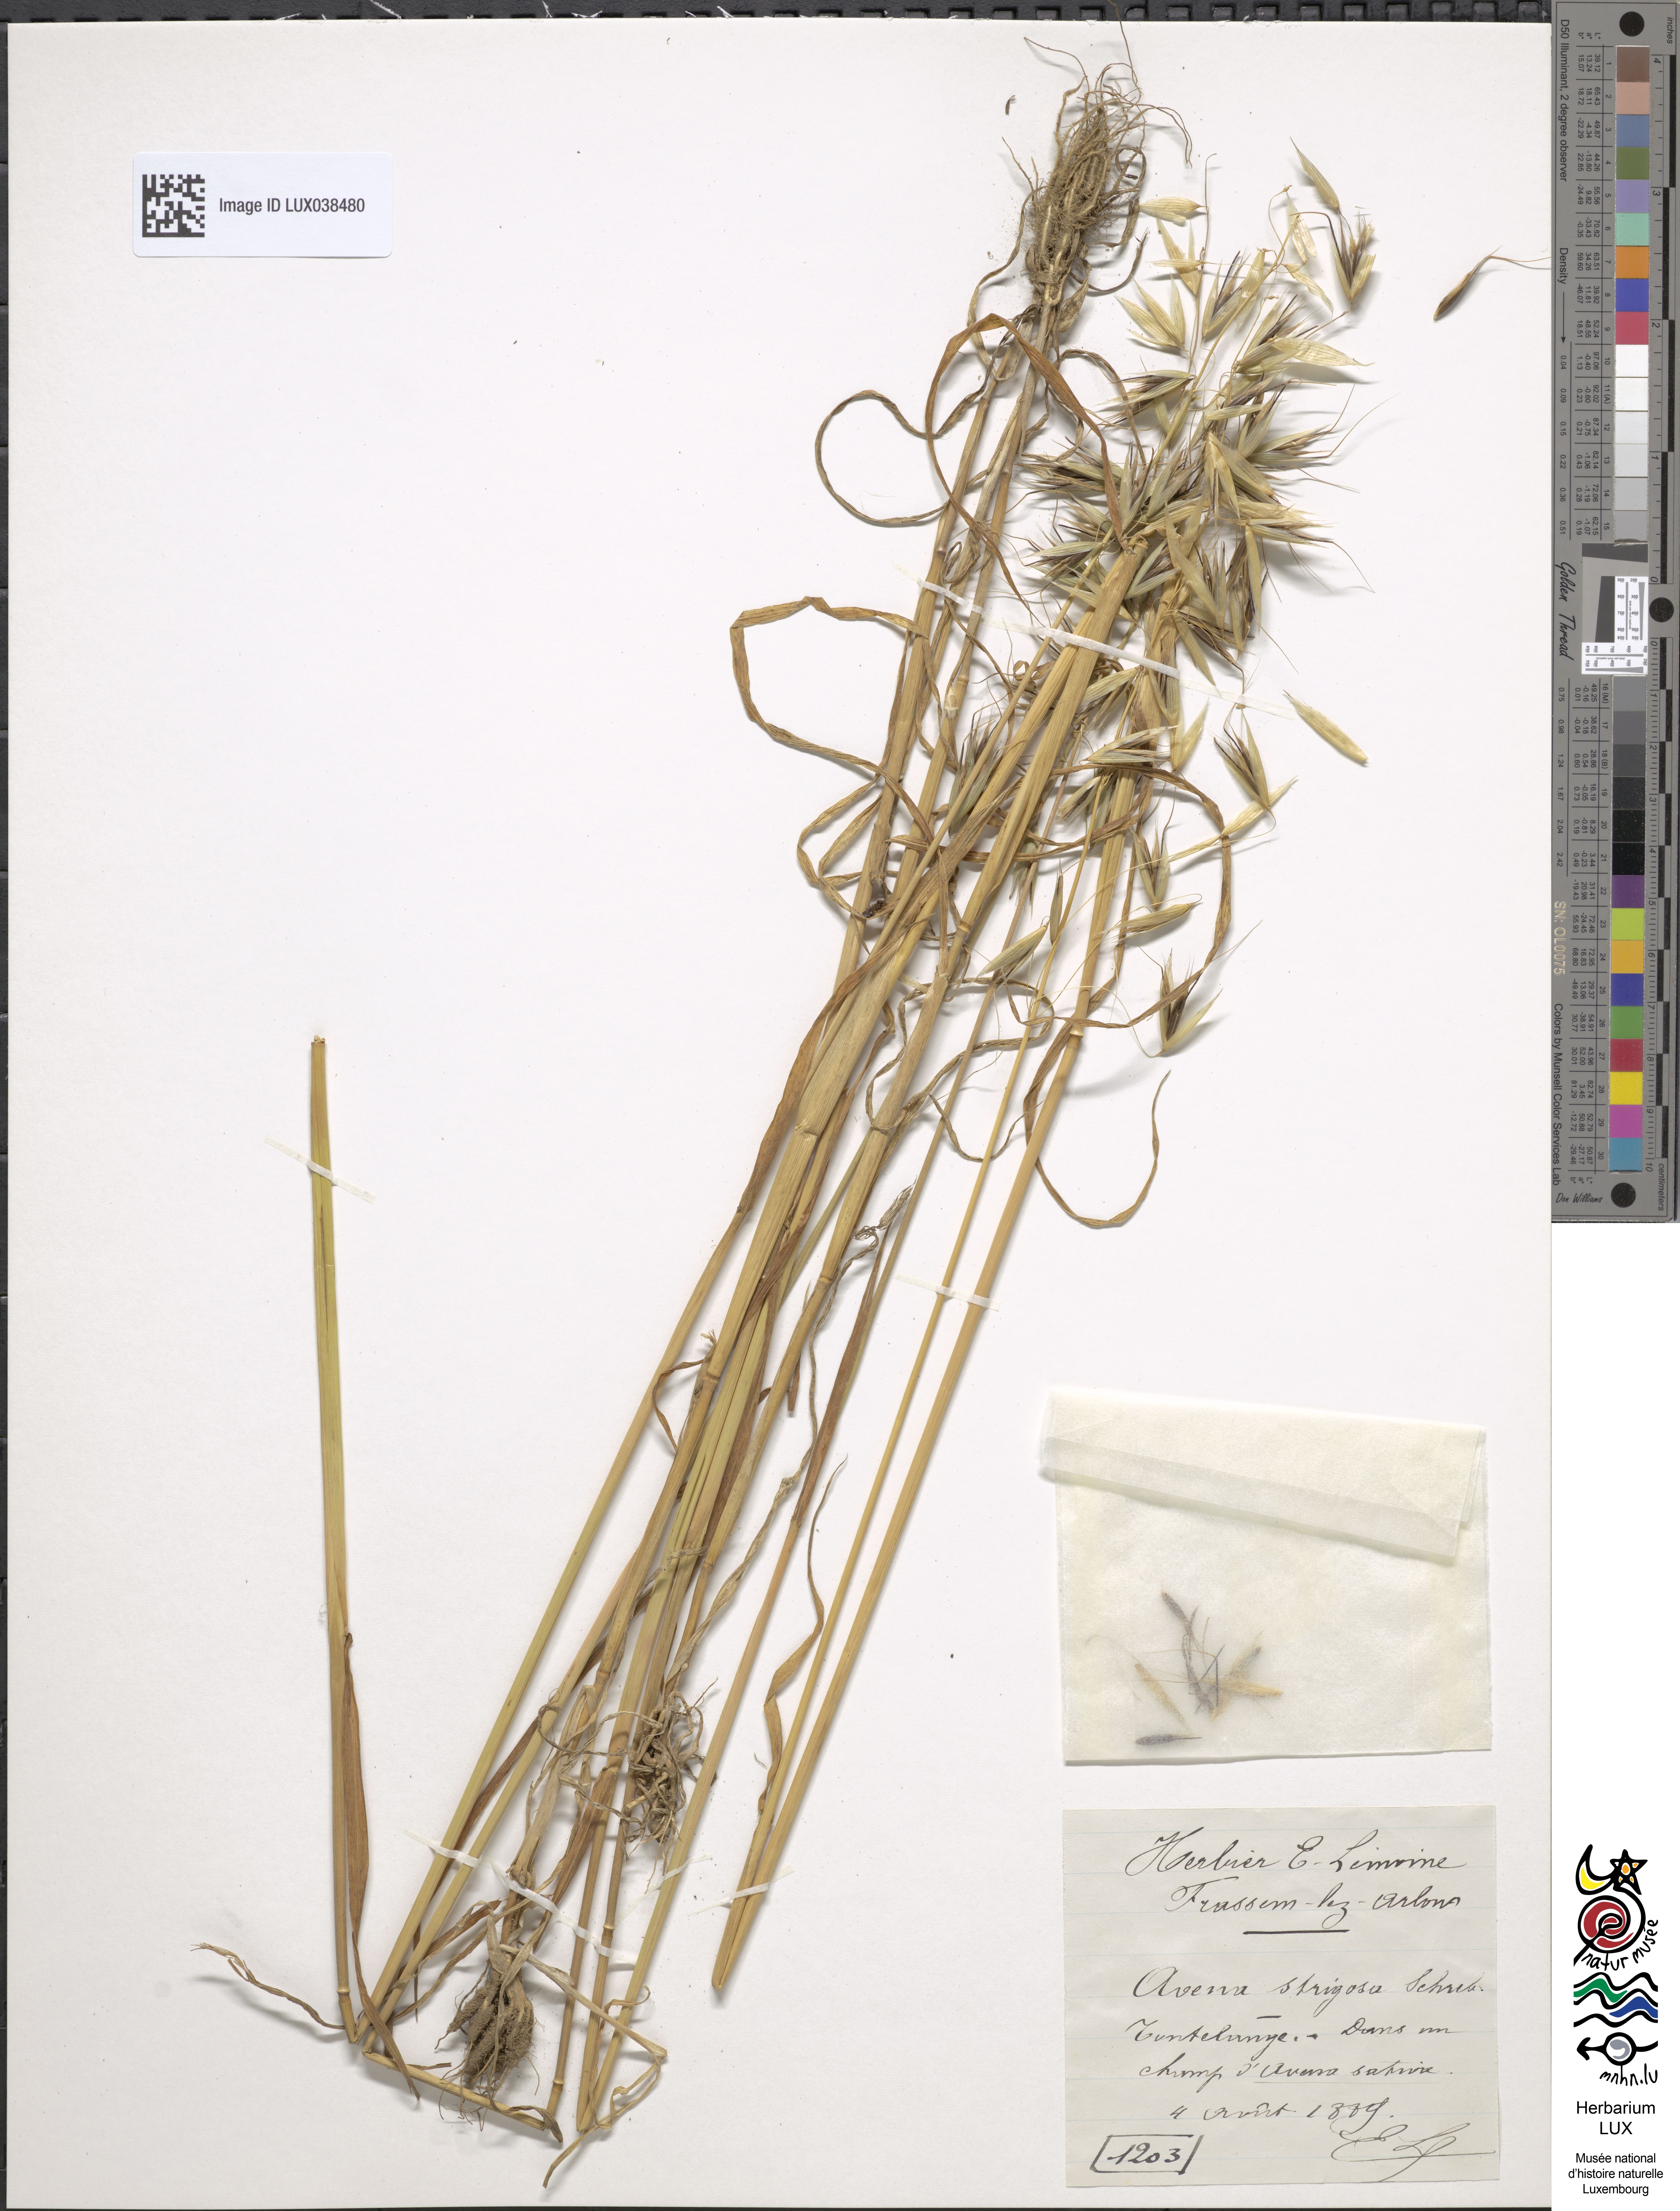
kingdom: Plantae
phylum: Tracheophyta
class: Liliopsida
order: Poales
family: Poaceae
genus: Avena
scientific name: Avena strigosa
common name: Bristle oat
